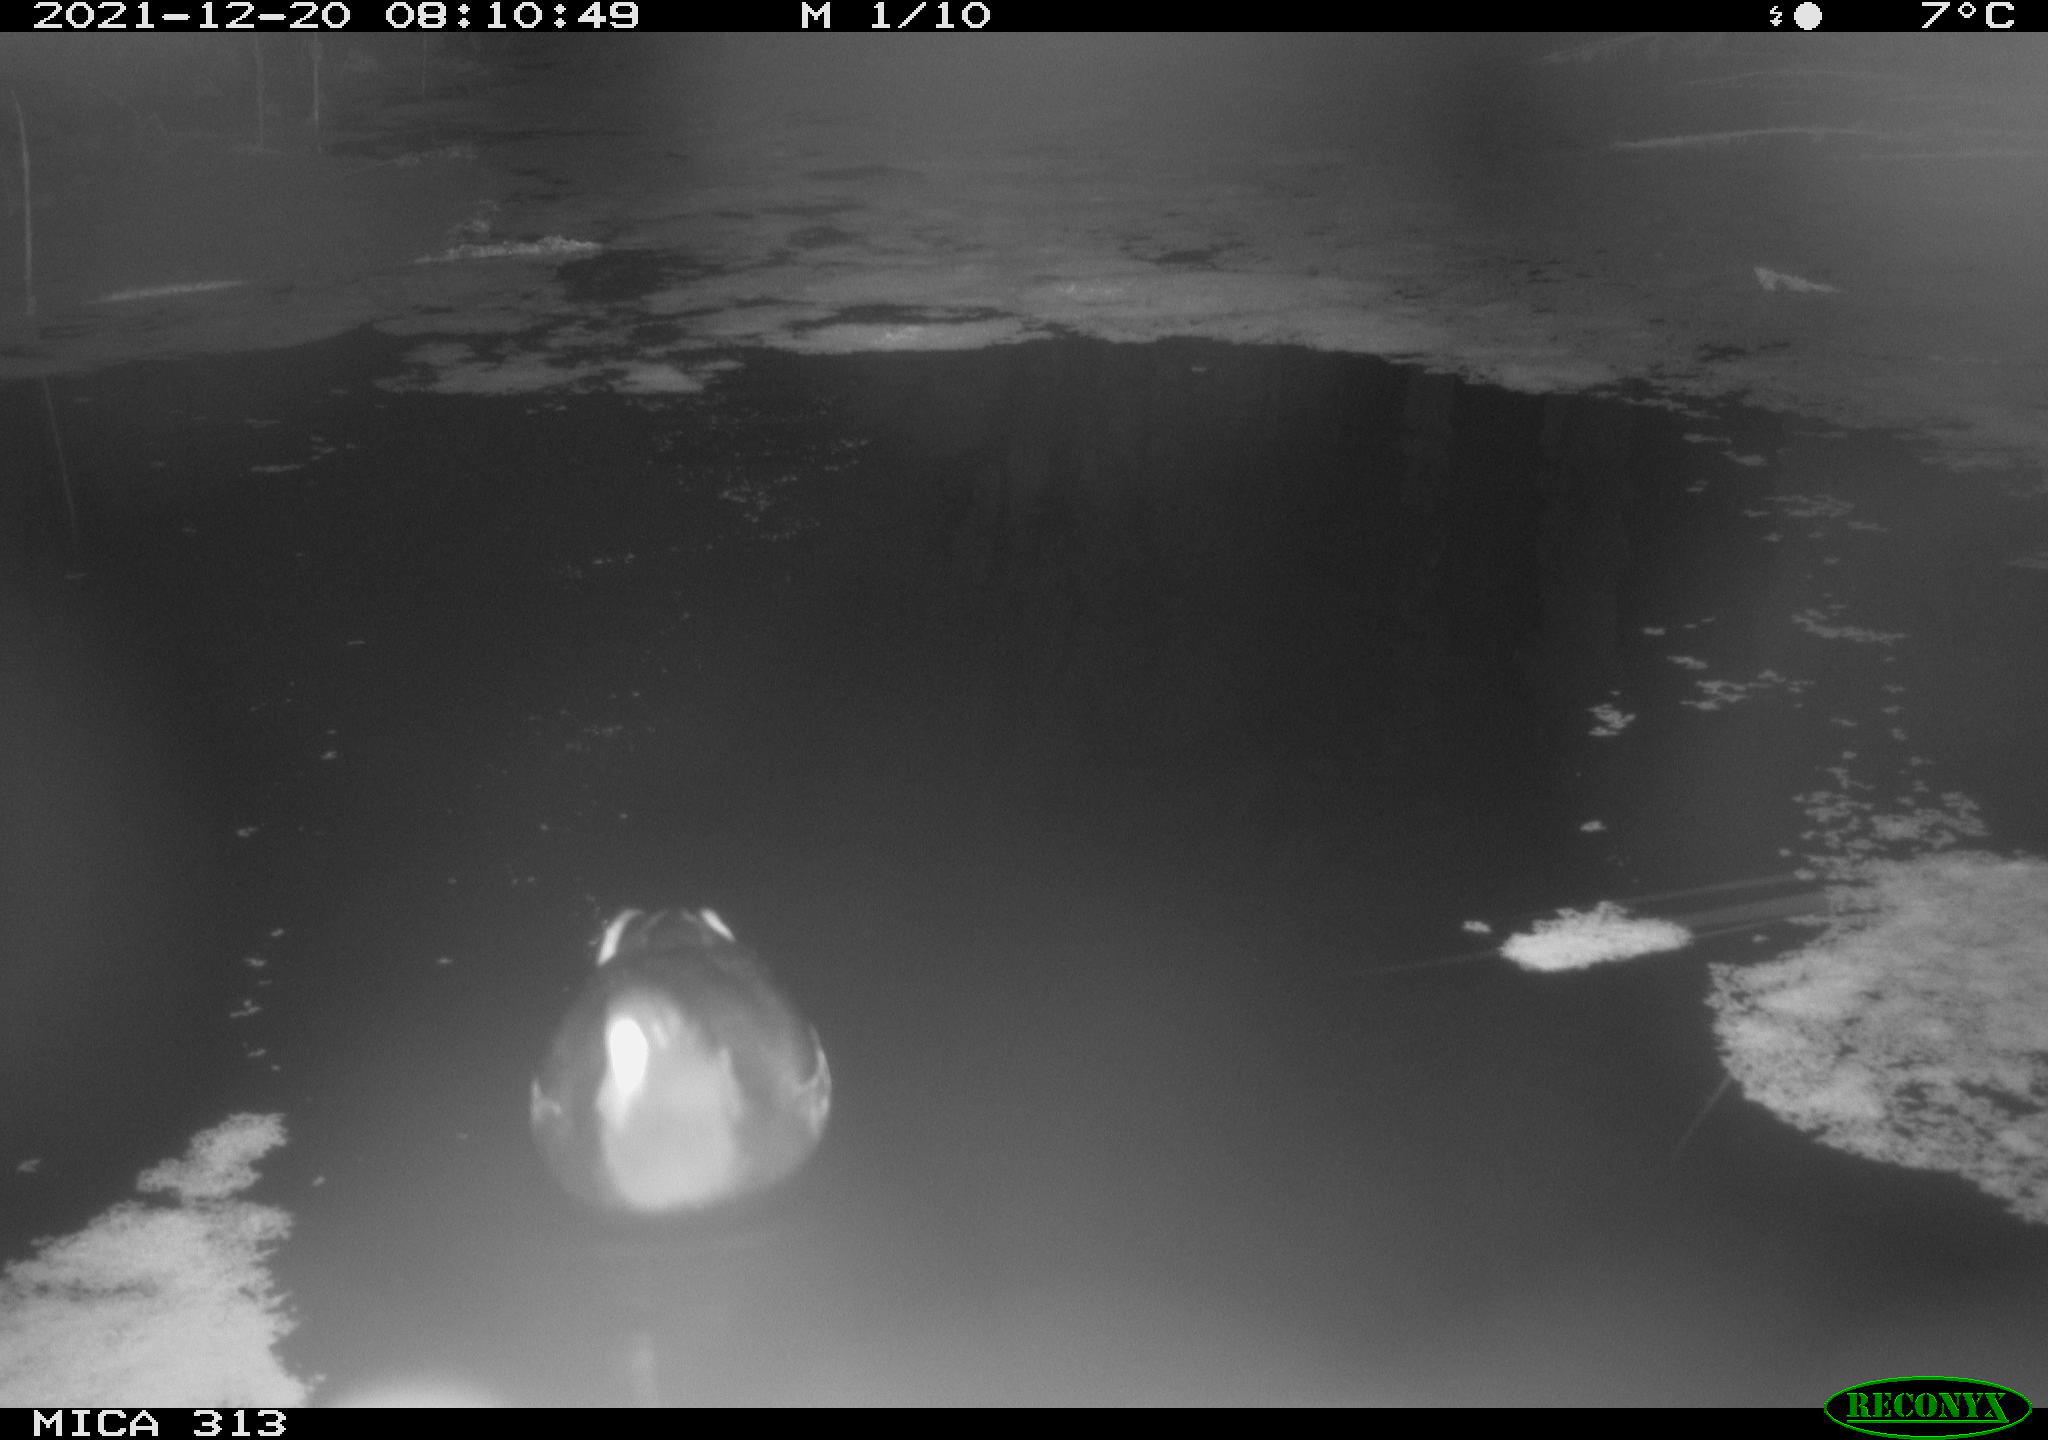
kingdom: Animalia
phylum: Chordata
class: Aves
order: Gruiformes
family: Rallidae
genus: Gallinula
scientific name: Gallinula chloropus
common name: Common moorhen
